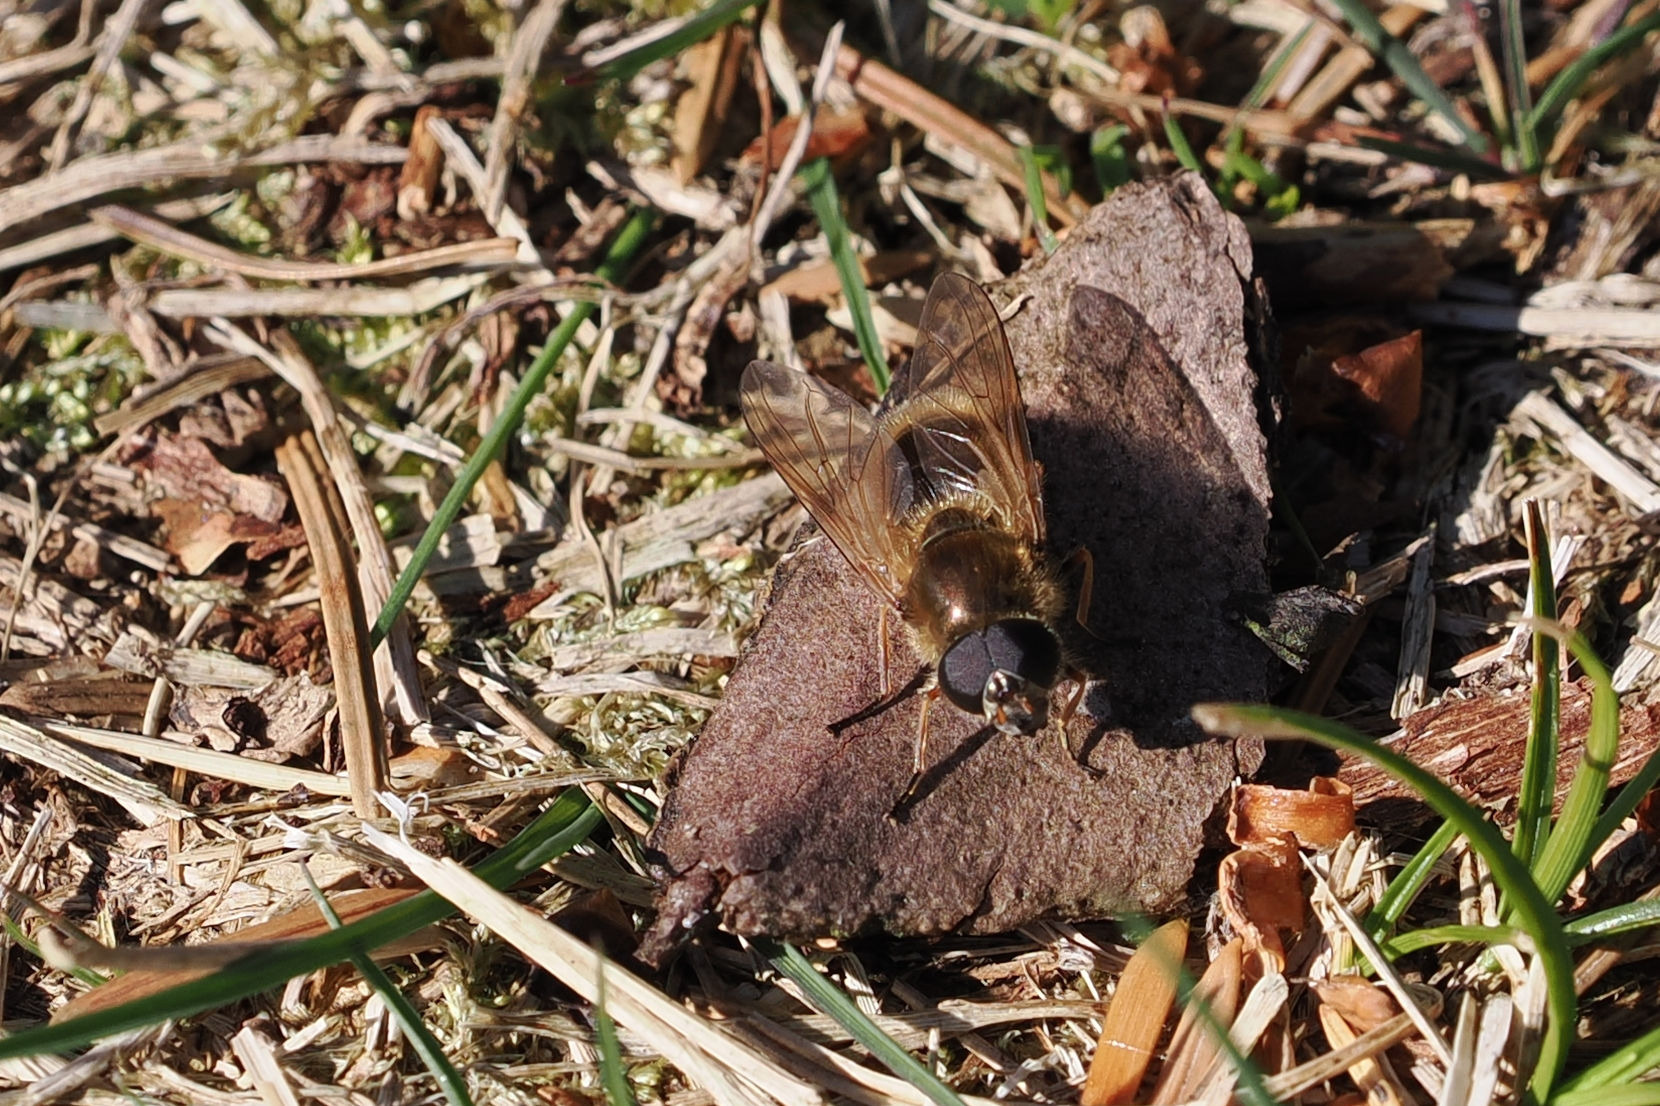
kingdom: Animalia
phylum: Arthropoda
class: Insecta
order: Diptera
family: Syrphidae
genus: Cheilosia
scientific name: Cheilosia albipila
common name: Hvidhåret urtesvirreflue
